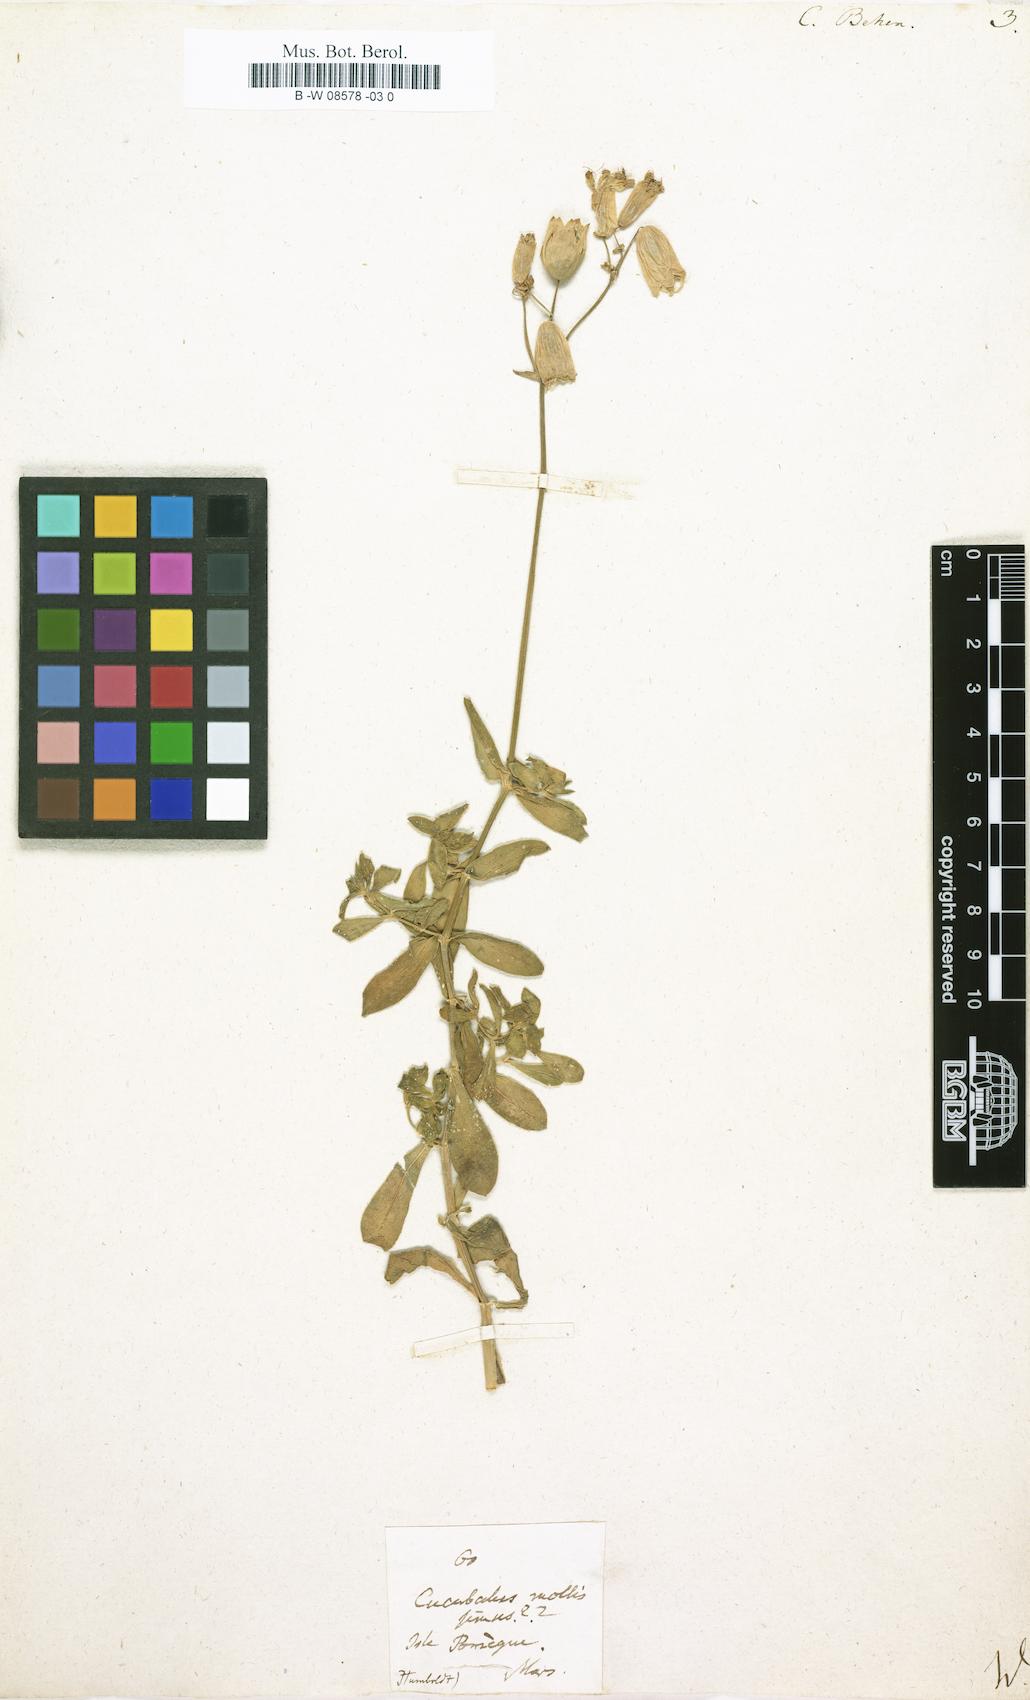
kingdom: Plantae
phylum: Tracheophyta
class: Magnoliopsida
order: Caryophyllales
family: Caryophyllaceae
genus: Silene
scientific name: Silene vulgaris
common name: Bladder campion
